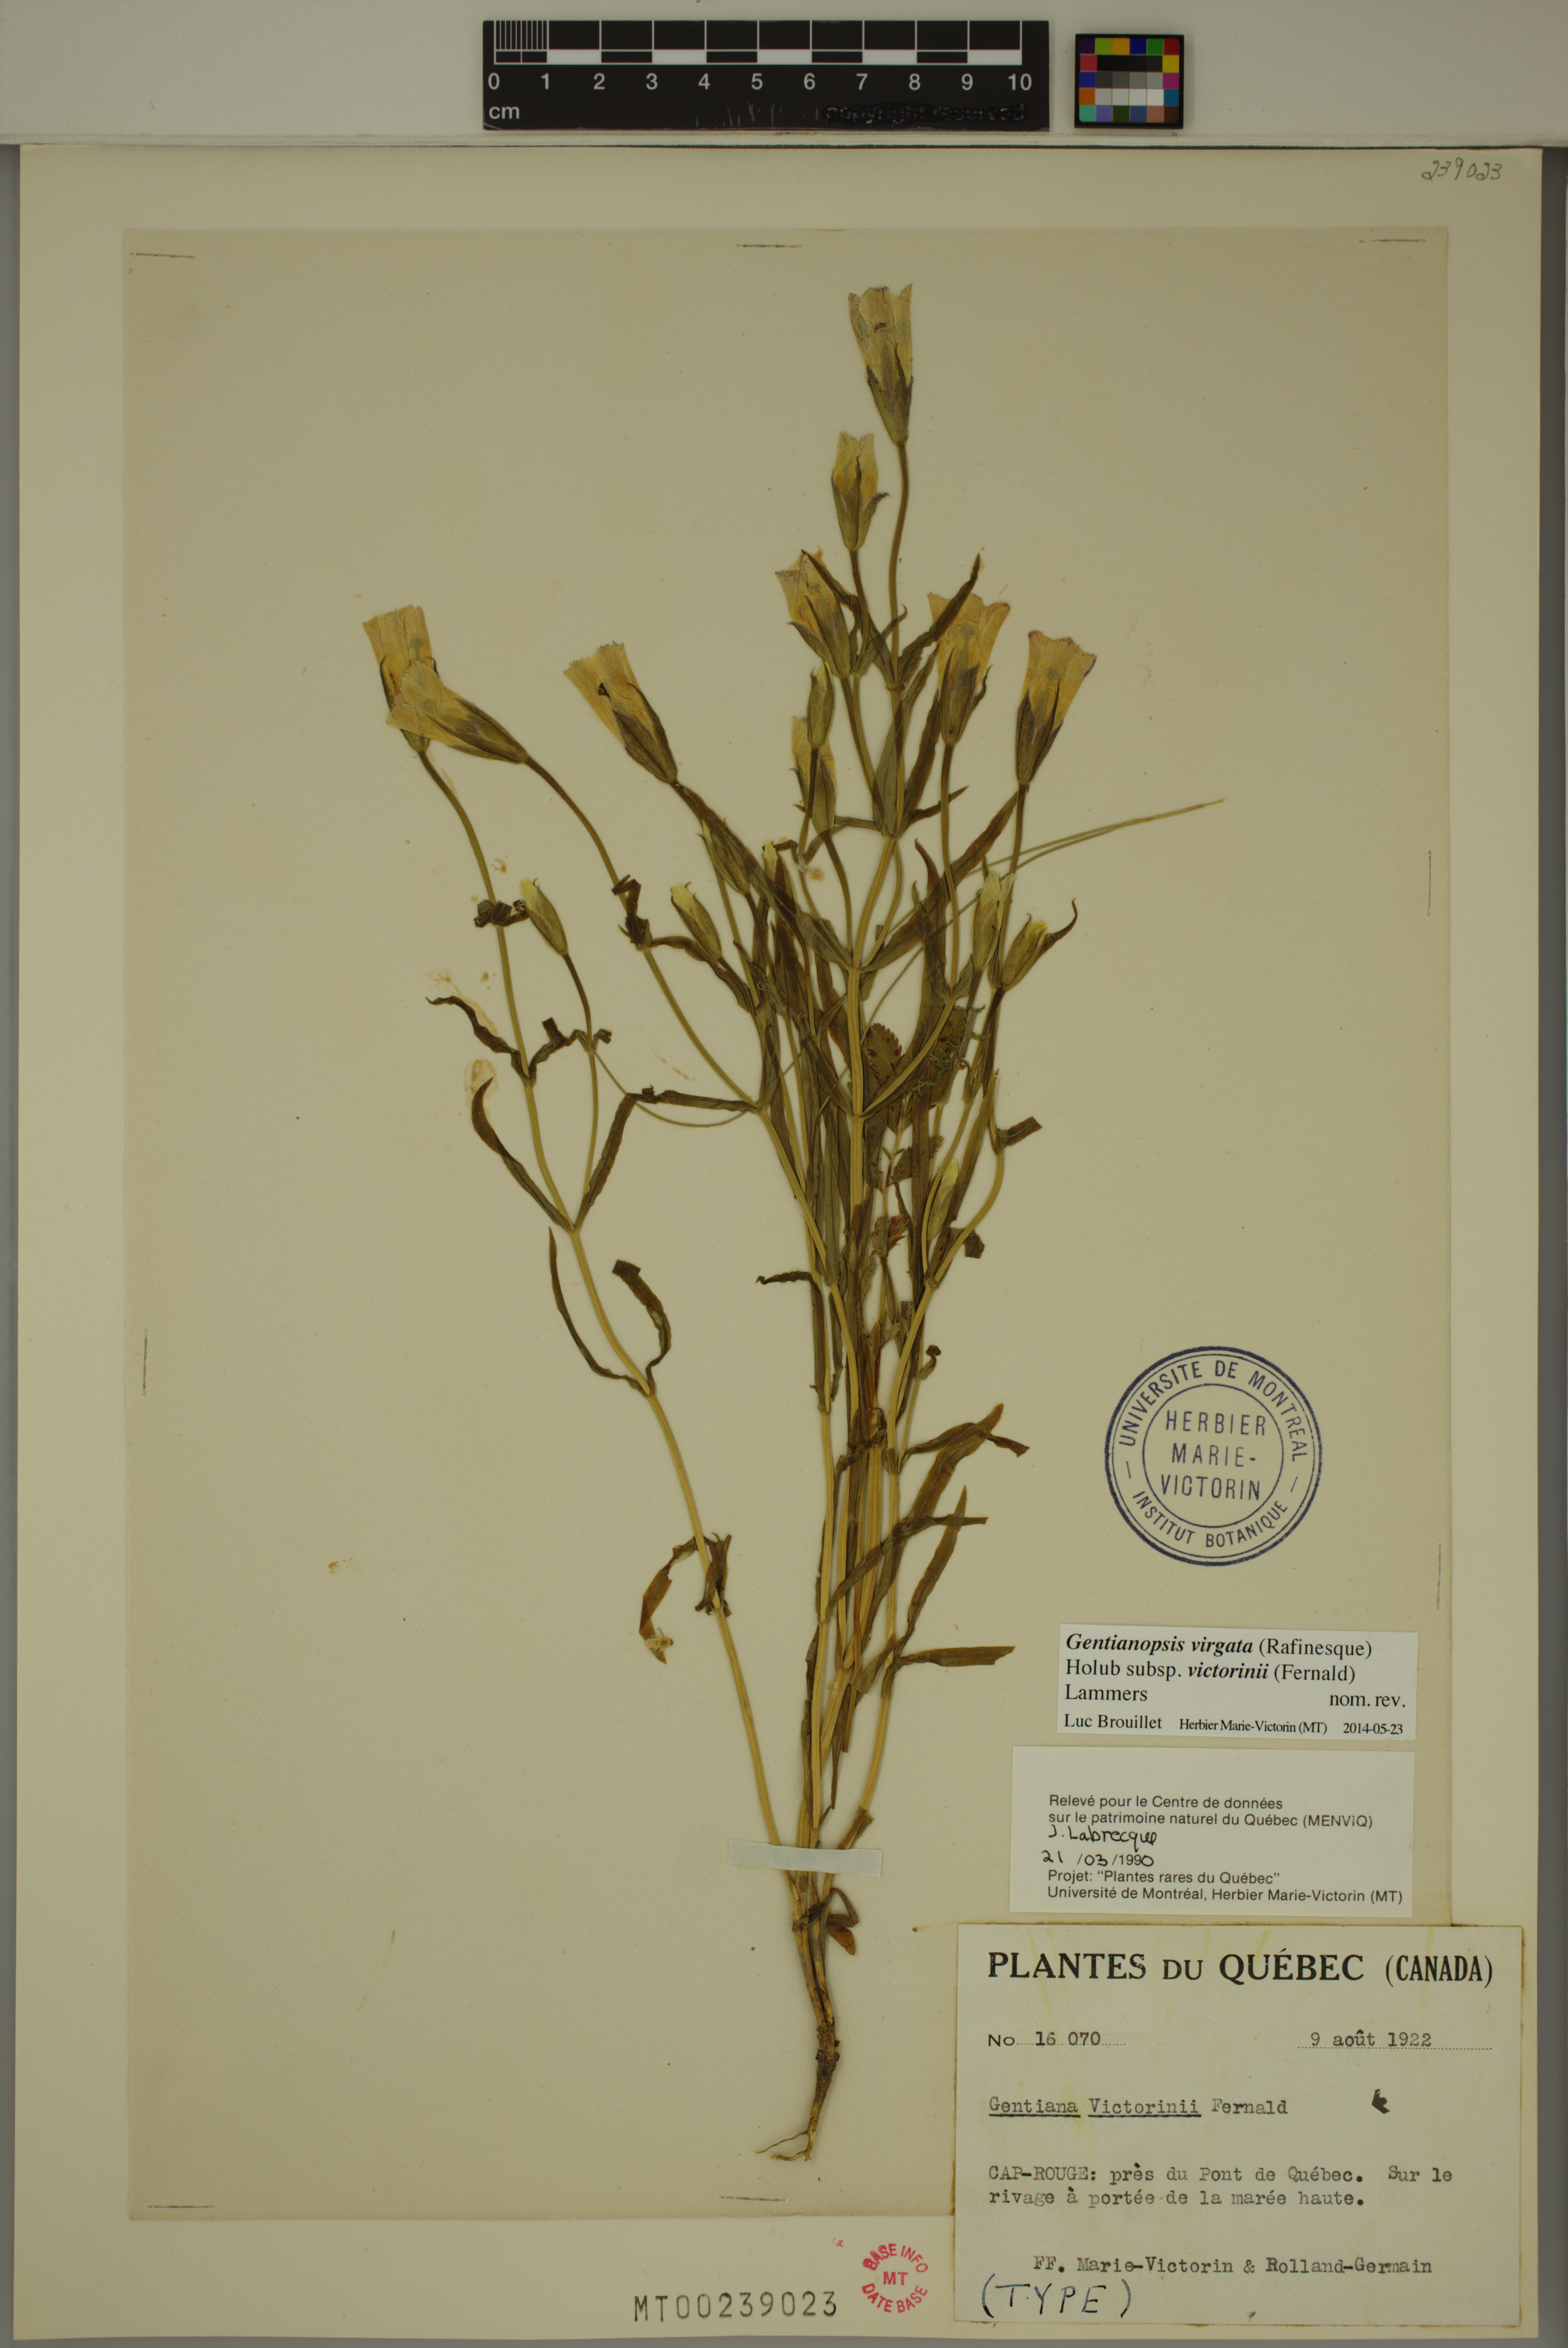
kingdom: Plantae
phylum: Tracheophyta
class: Magnoliopsida
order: Gentianales
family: Gentianaceae
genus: Gentianopsis
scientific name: Gentianopsis victorinii
